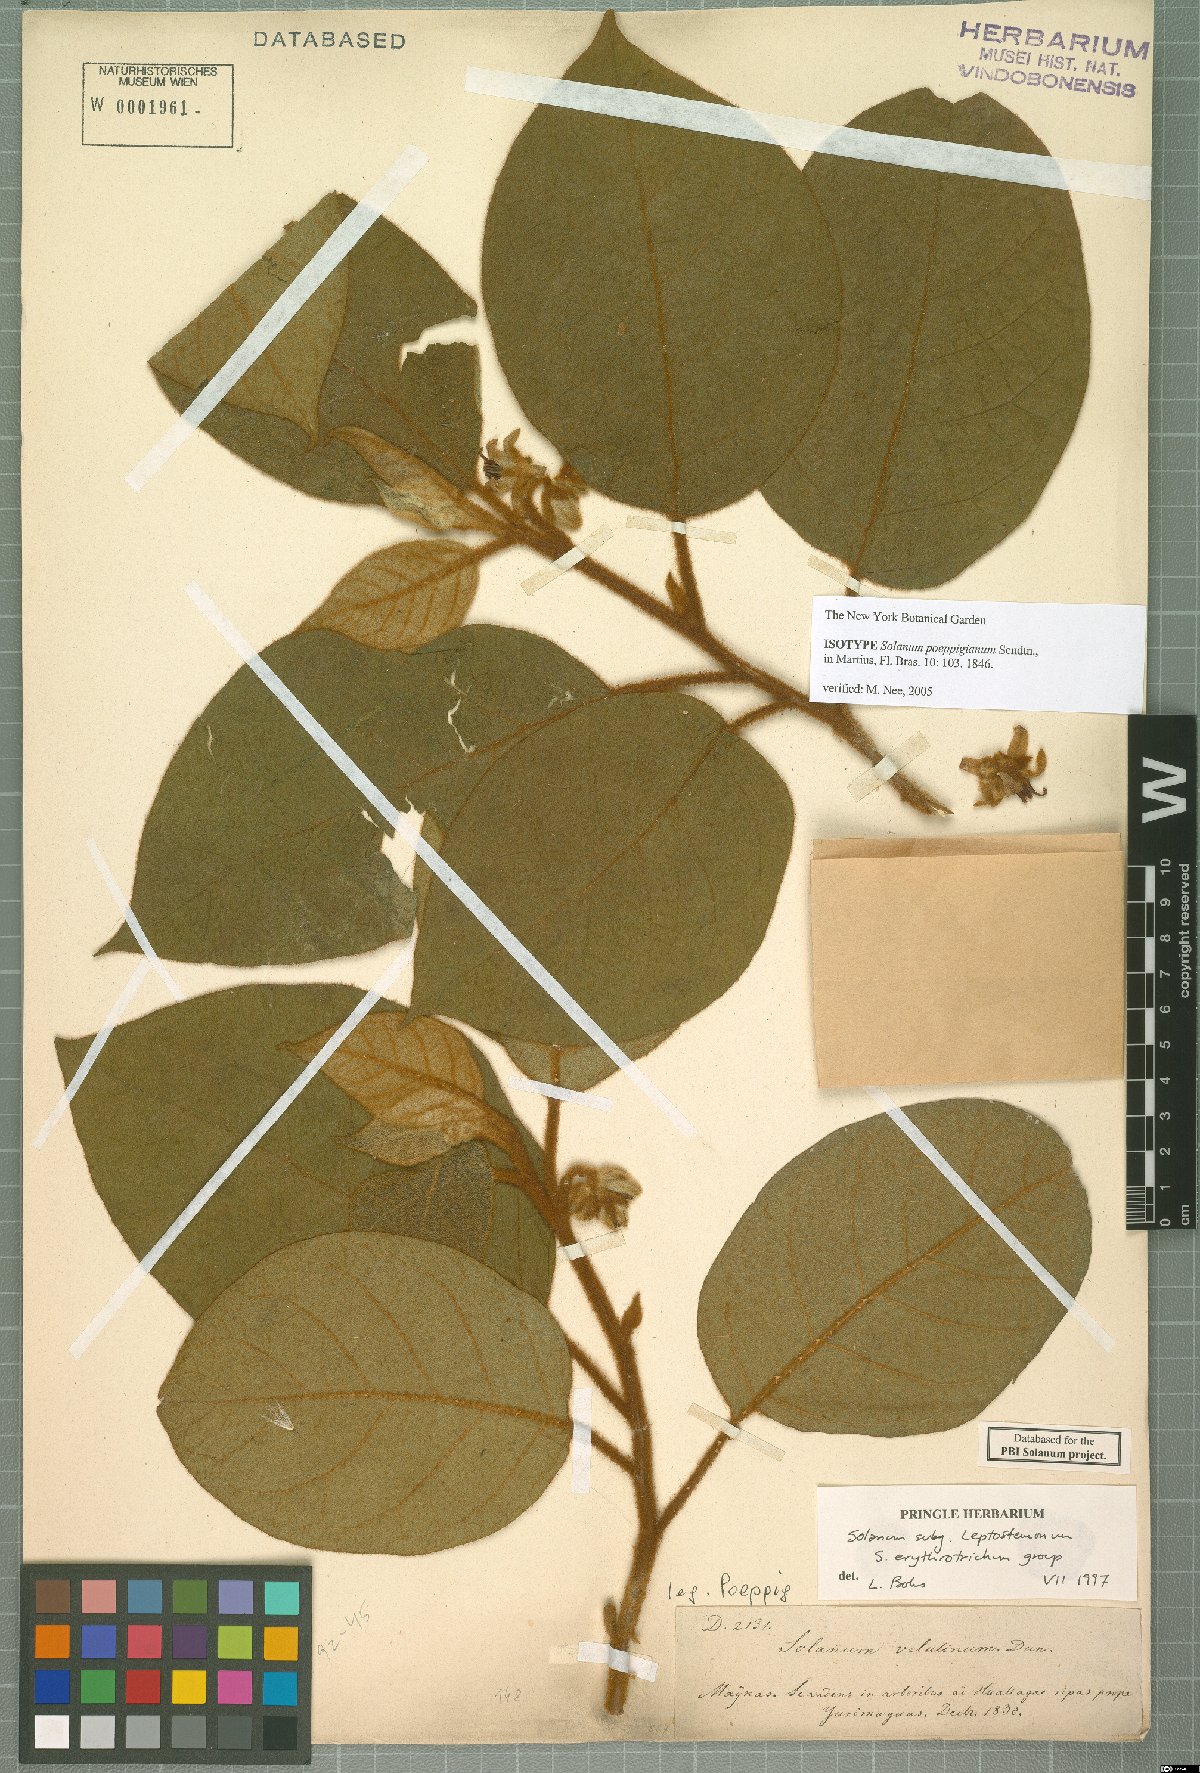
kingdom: Plantae
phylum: Tracheophyta
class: Magnoliopsida
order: Solanales
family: Solanaceae
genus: Solanum
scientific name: Solanum velutinum
